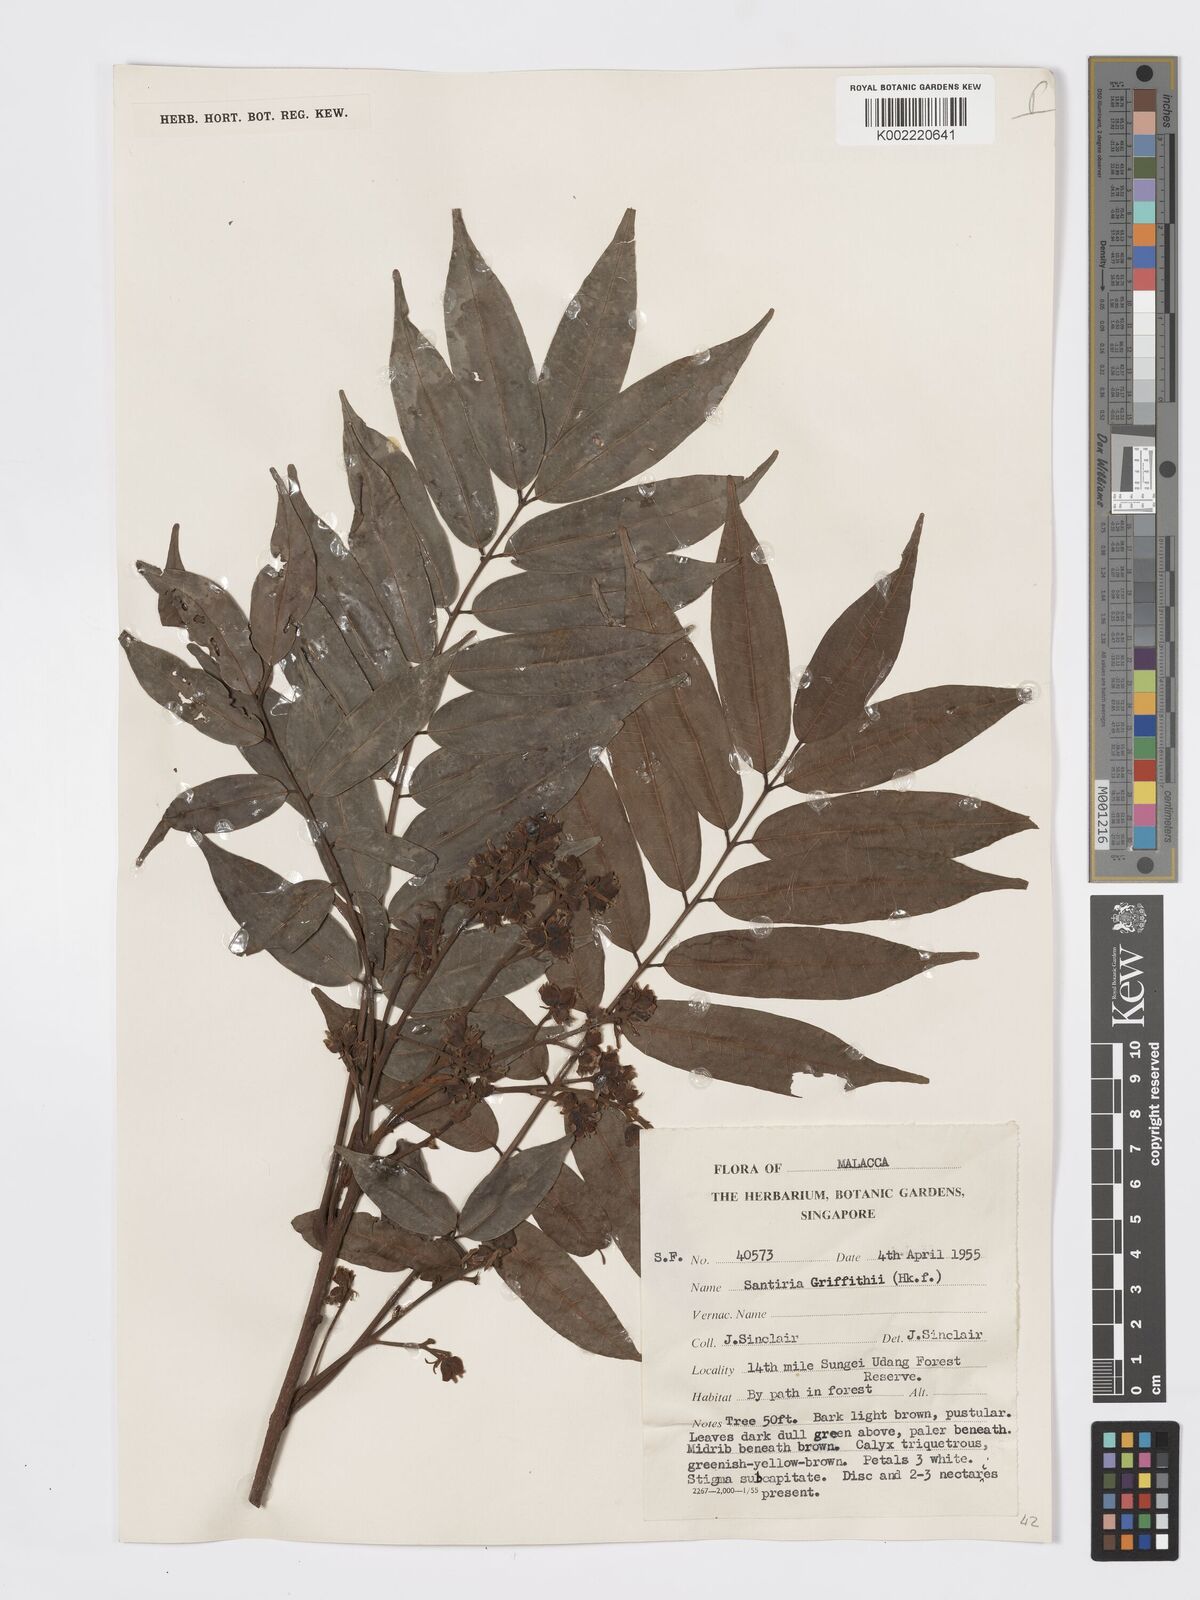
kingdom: Plantae
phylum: Tracheophyta
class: Magnoliopsida
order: Sapindales
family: Burseraceae
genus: Santiria
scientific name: Santiria griffithii
